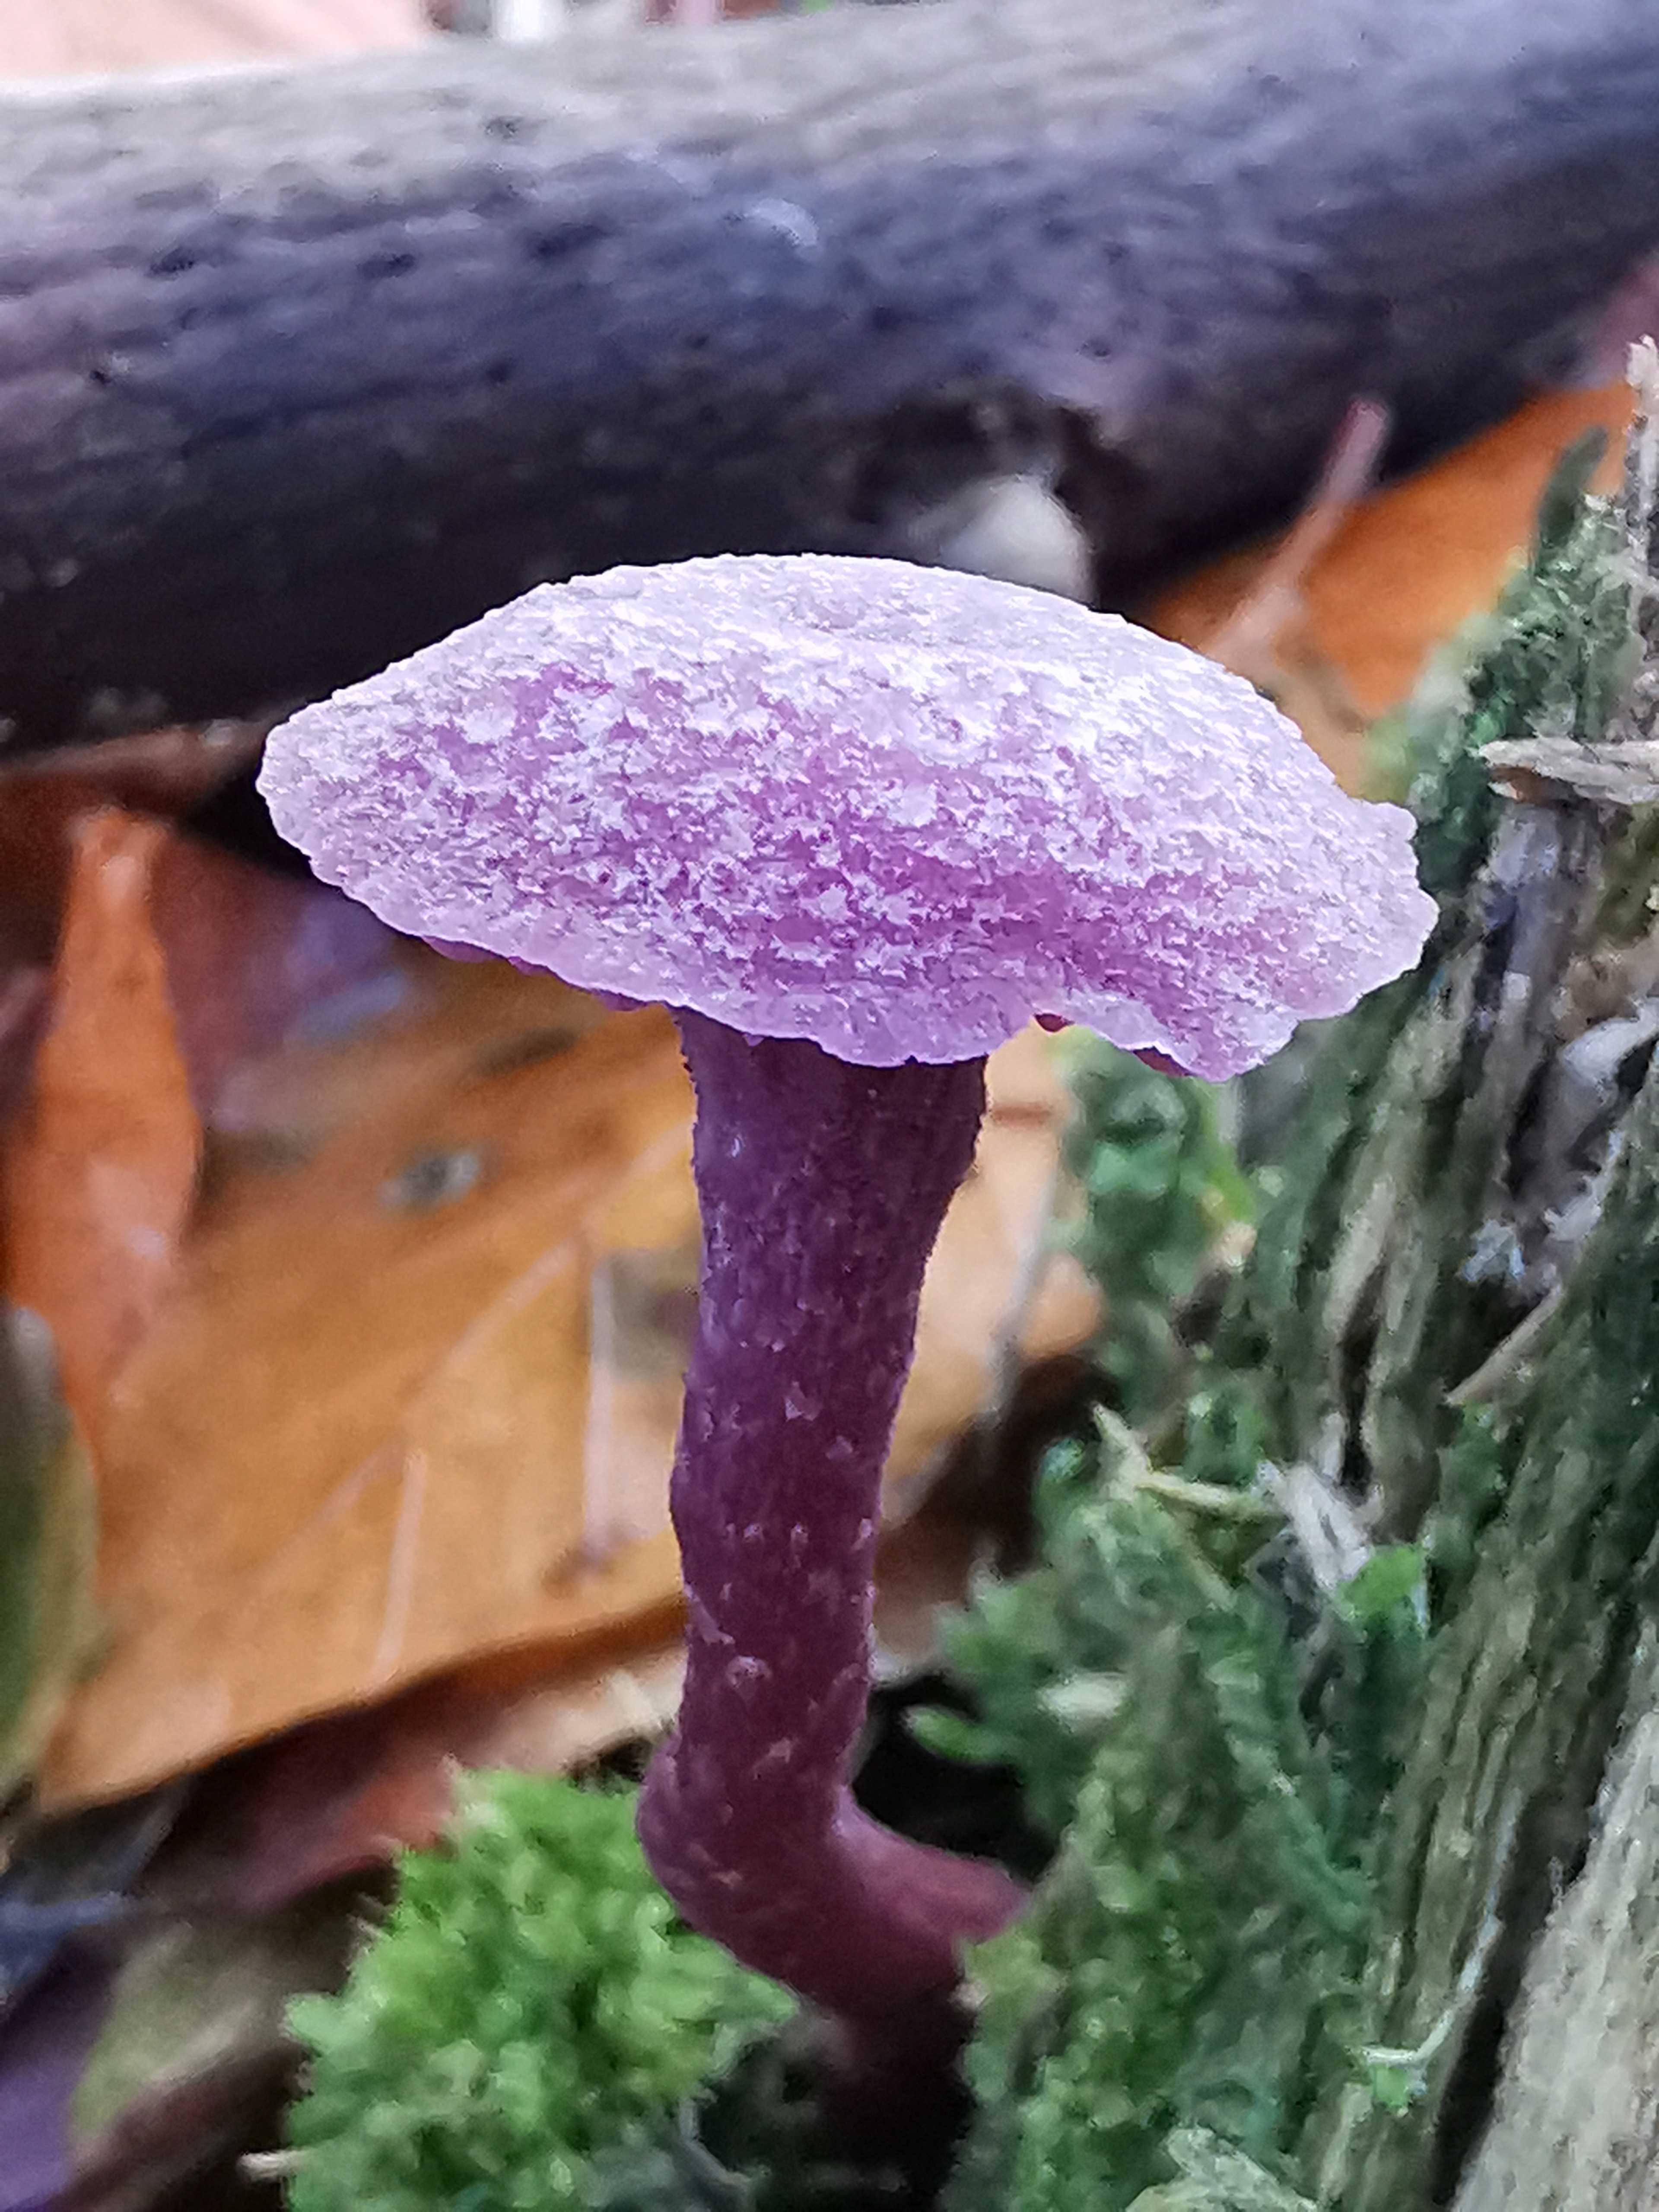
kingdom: Fungi
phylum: Basidiomycota
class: Agaricomycetes
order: Agaricales
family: Hydnangiaceae
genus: Laccaria
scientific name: Laccaria amethystina
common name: violet ametysthat
